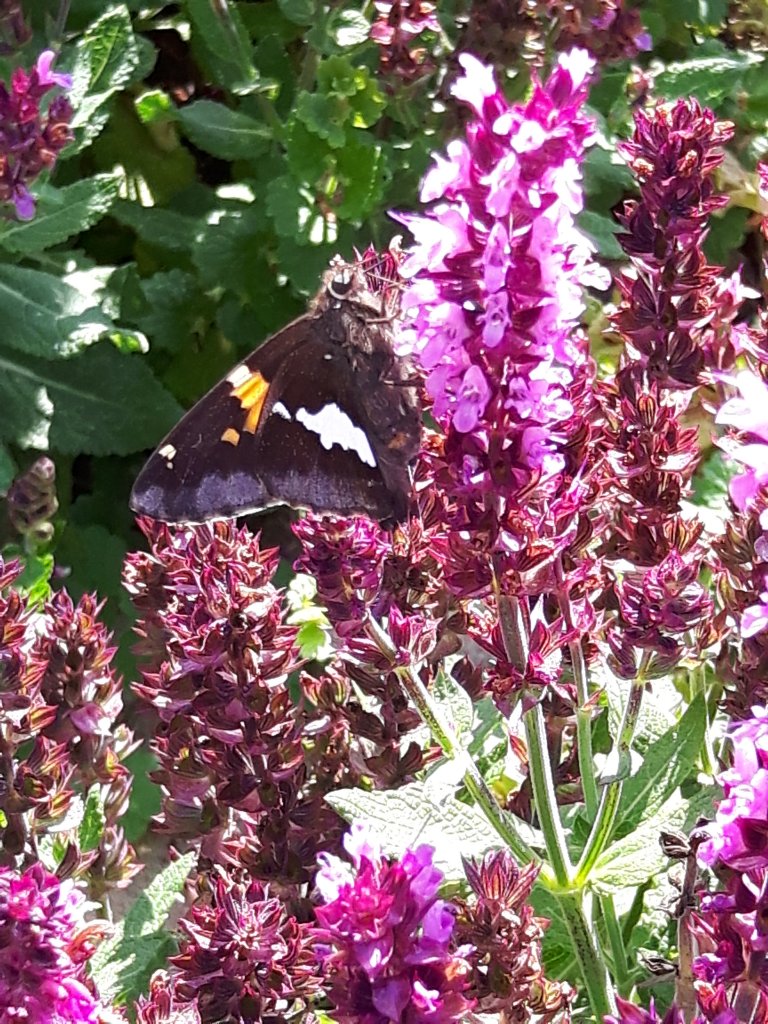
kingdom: Animalia
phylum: Arthropoda
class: Insecta
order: Lepidoptera
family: Hesperiidae
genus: Epargyreus
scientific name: Epargyreus clarus
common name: Silver-spotted Skipper
